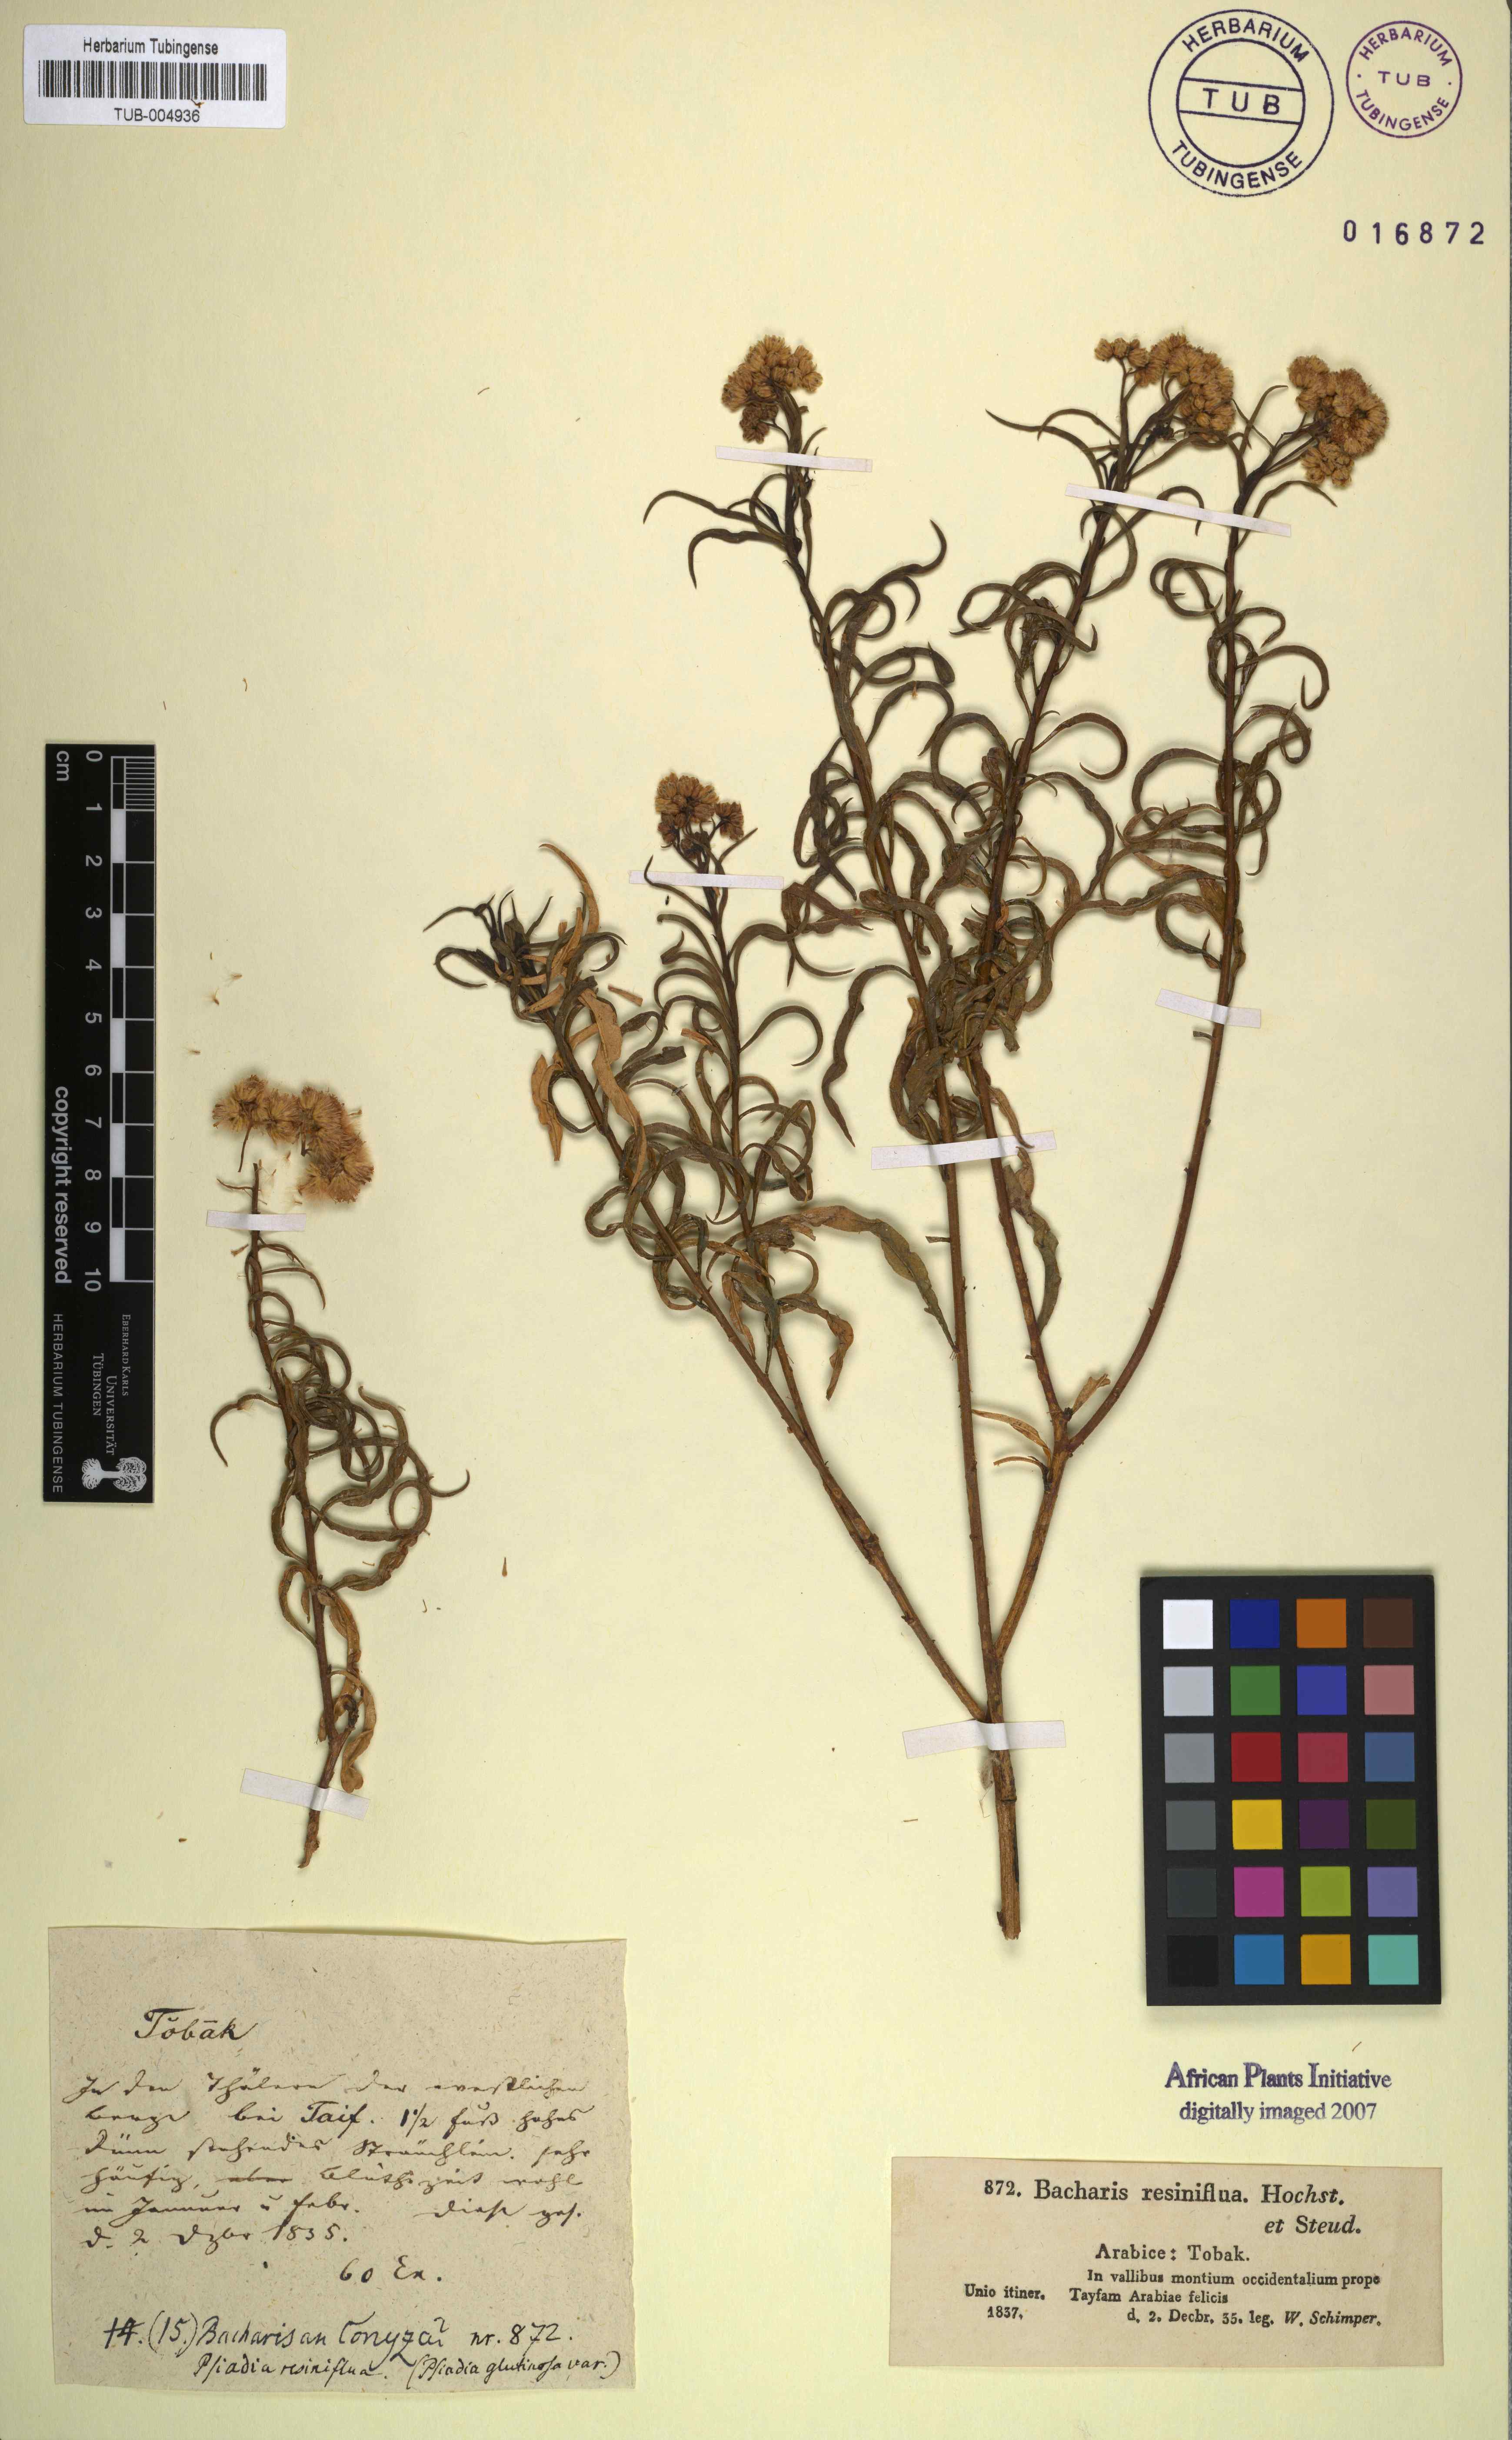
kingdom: Plantae
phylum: Tracheophyta
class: Magnoliopsida
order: Asterales
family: Asteraceae
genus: Psiadia
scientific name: Psiadia punctulata
